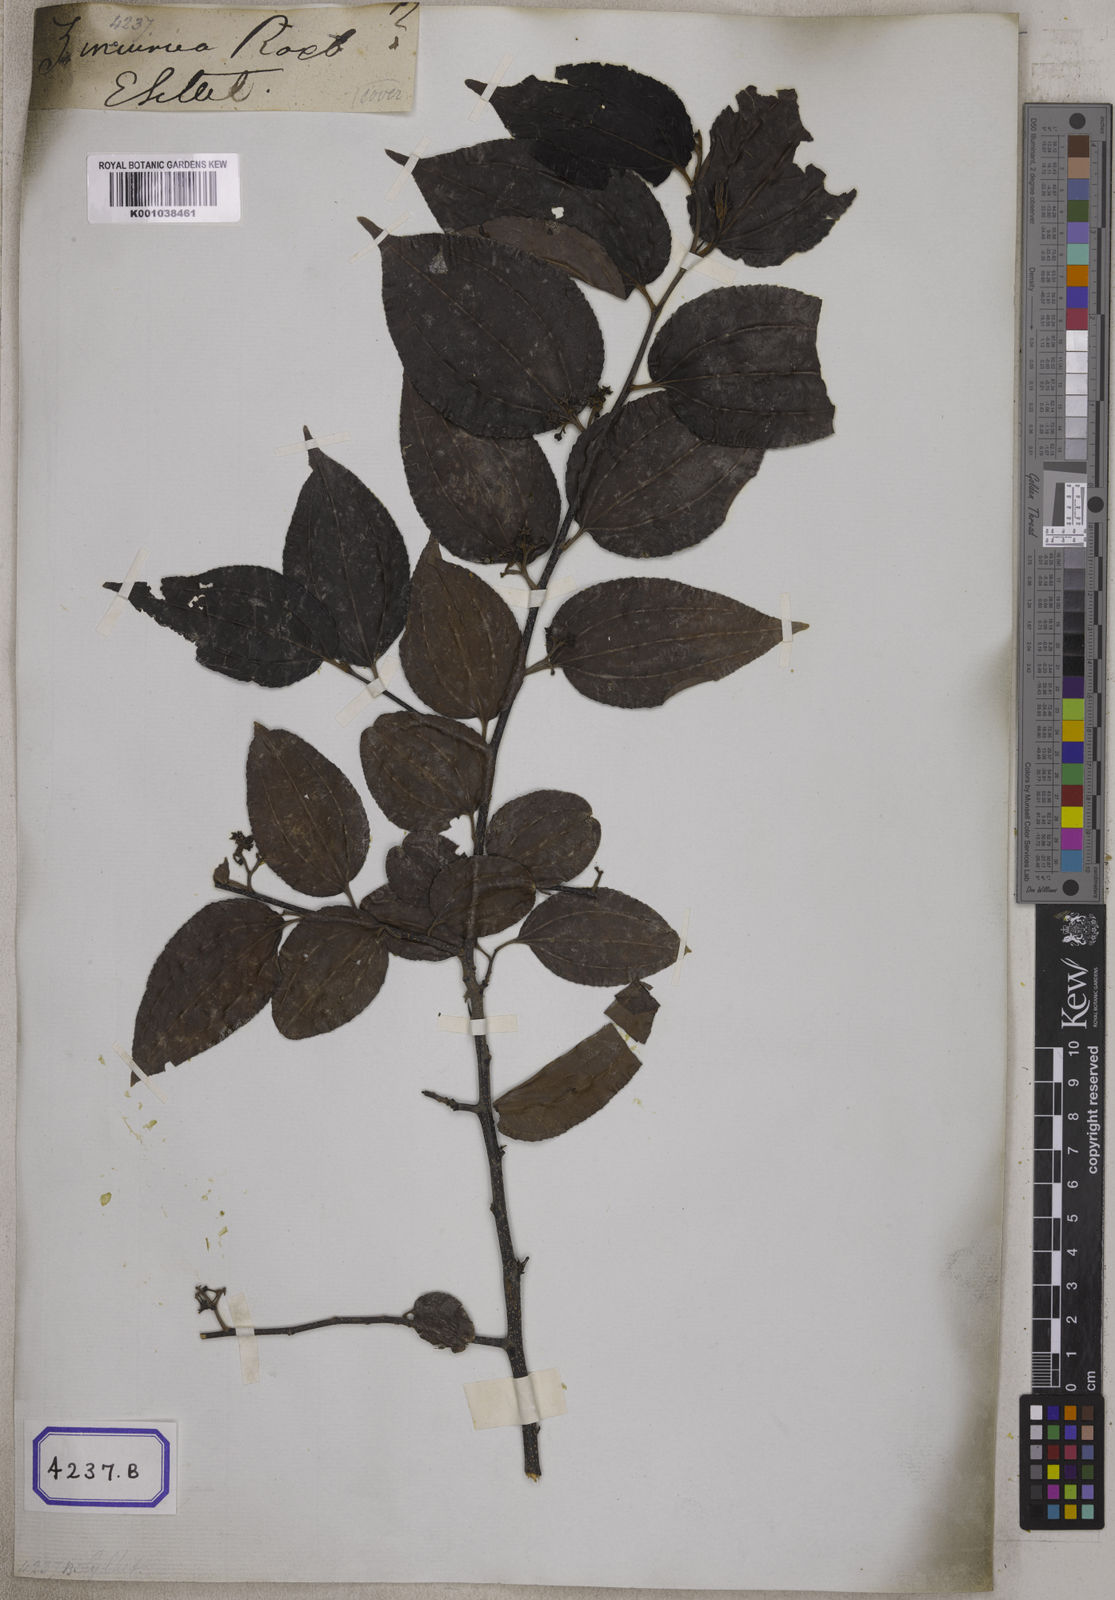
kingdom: Plantae
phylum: Tracheophyta
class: Magnoliopsida
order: Rosales
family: Rhamnaceae
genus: Ziziphus
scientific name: Ziziphus incurva
